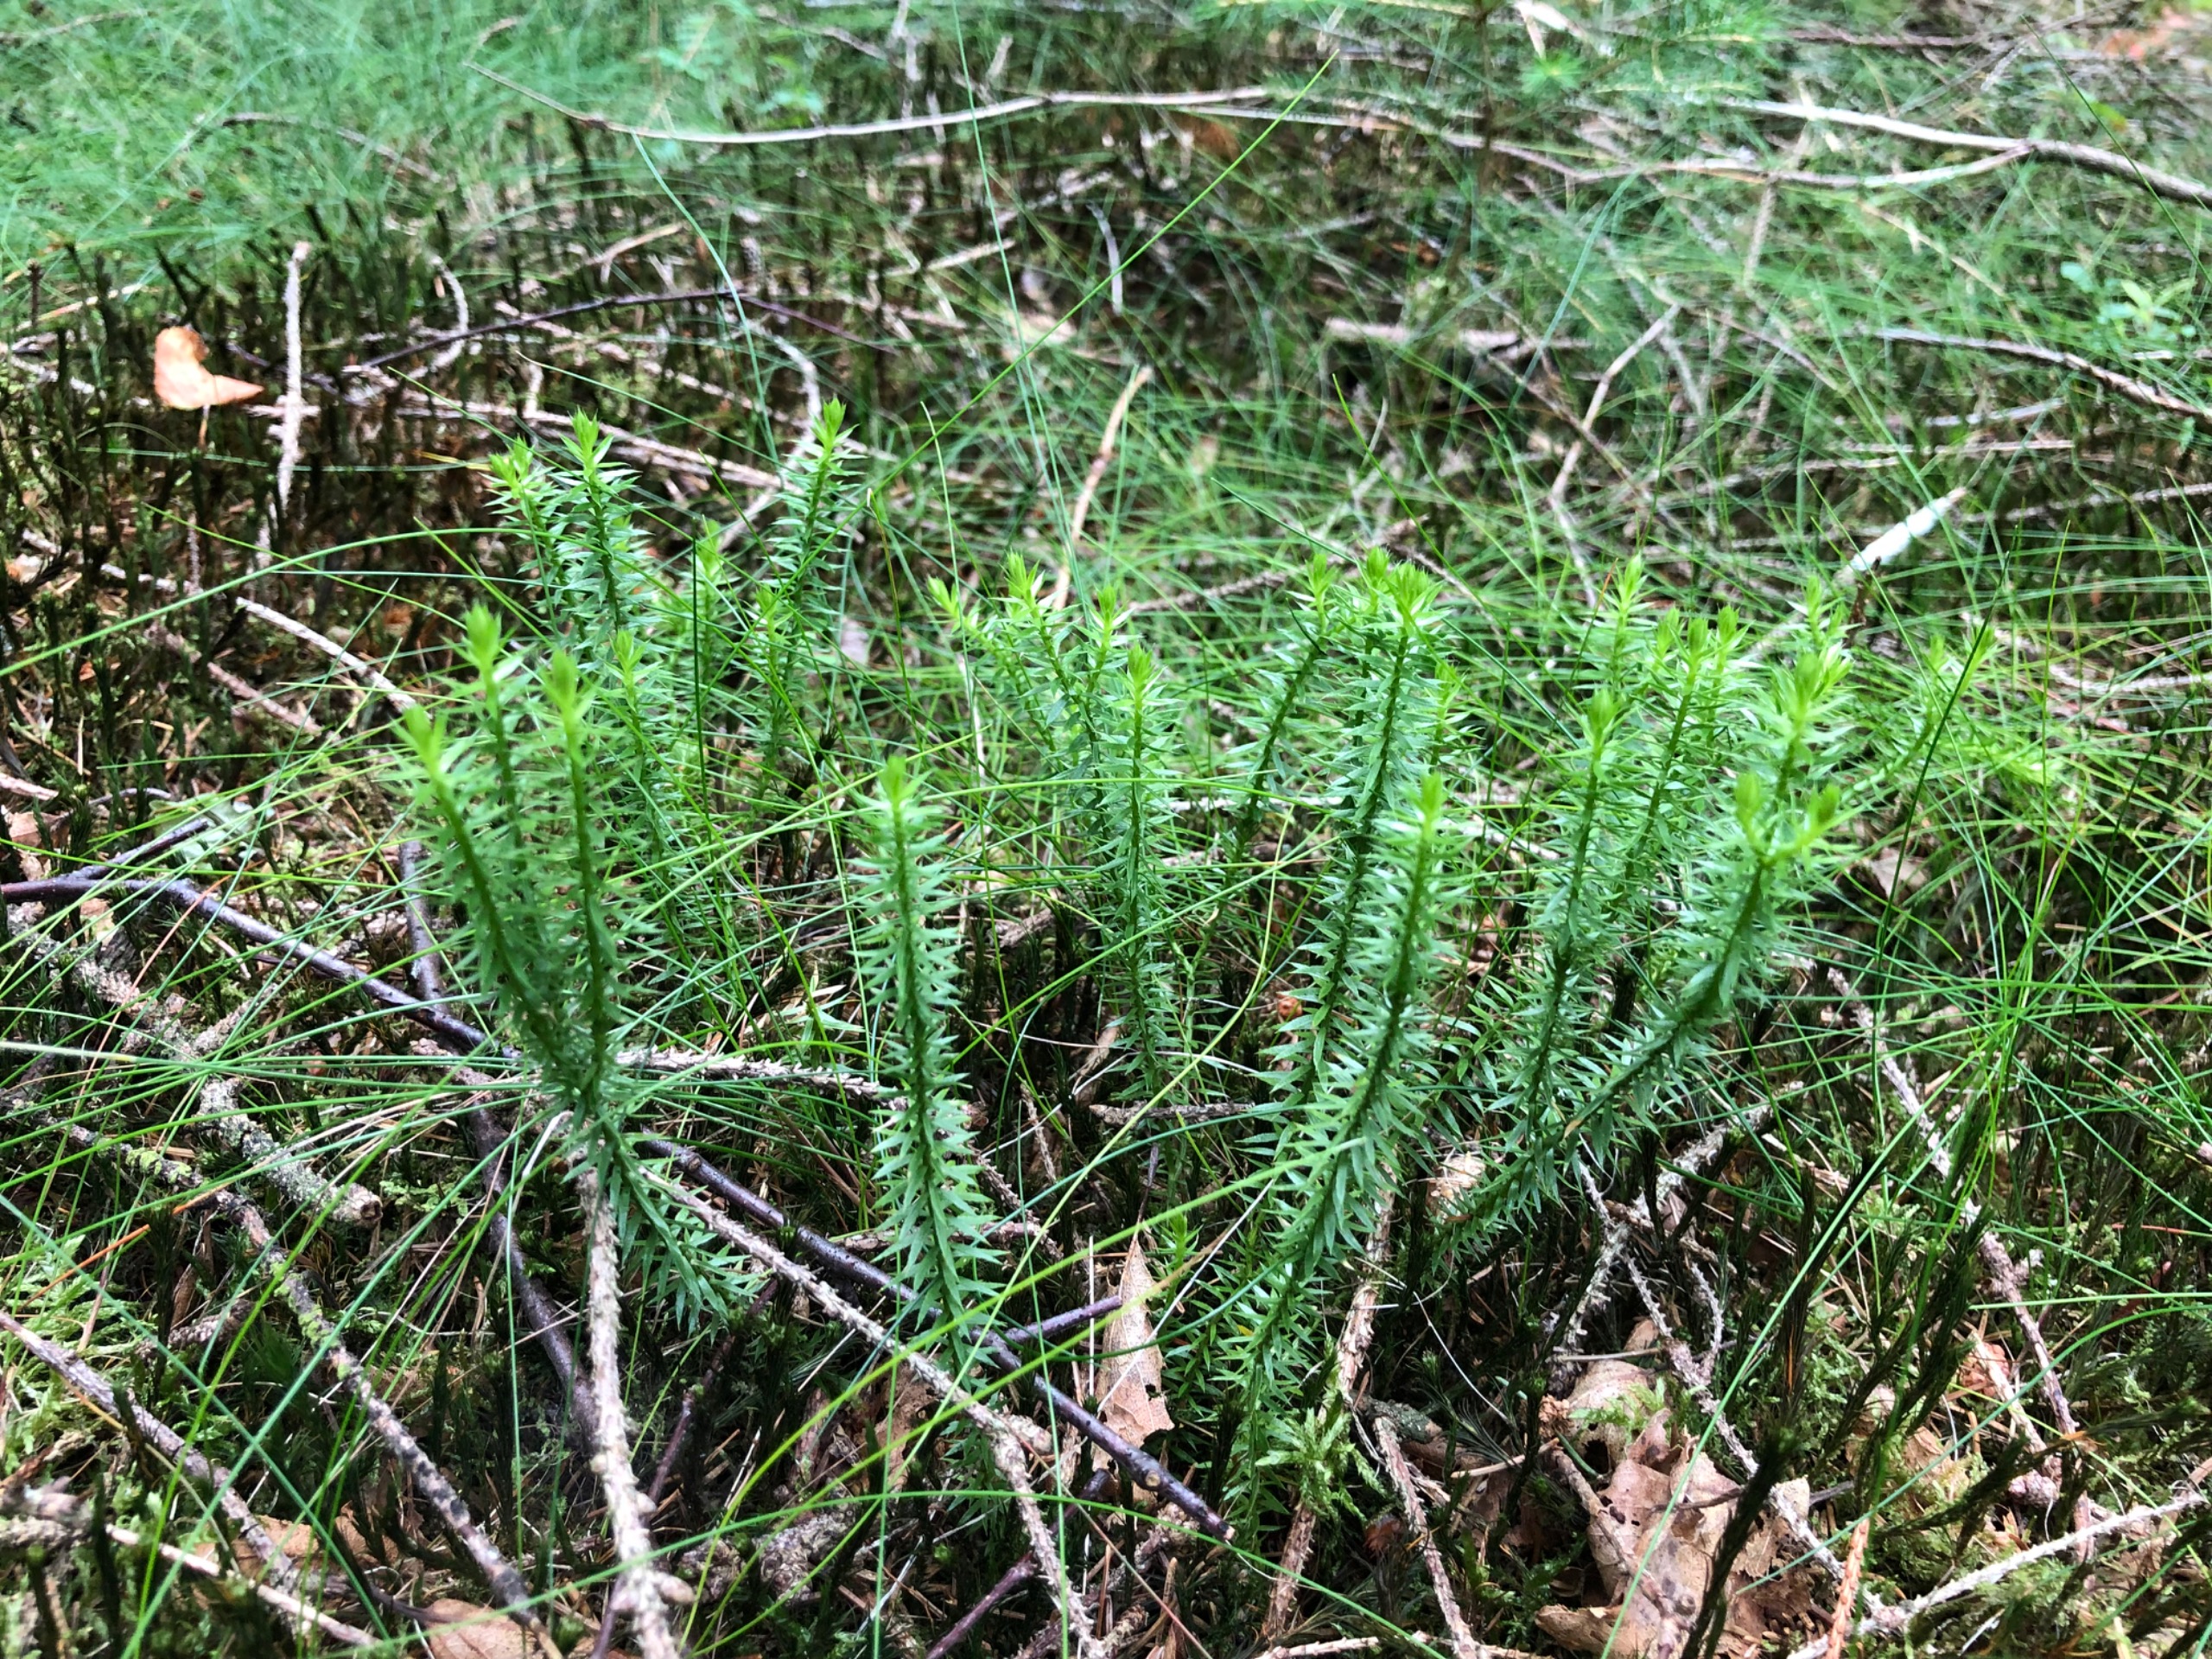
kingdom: Plantae
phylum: Tracheophyta
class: Lycopodiopsida
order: Lycopodiales
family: Lycopodiaceae
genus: Spinulum
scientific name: Spinulum annotinum
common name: Femradet ulvefod
